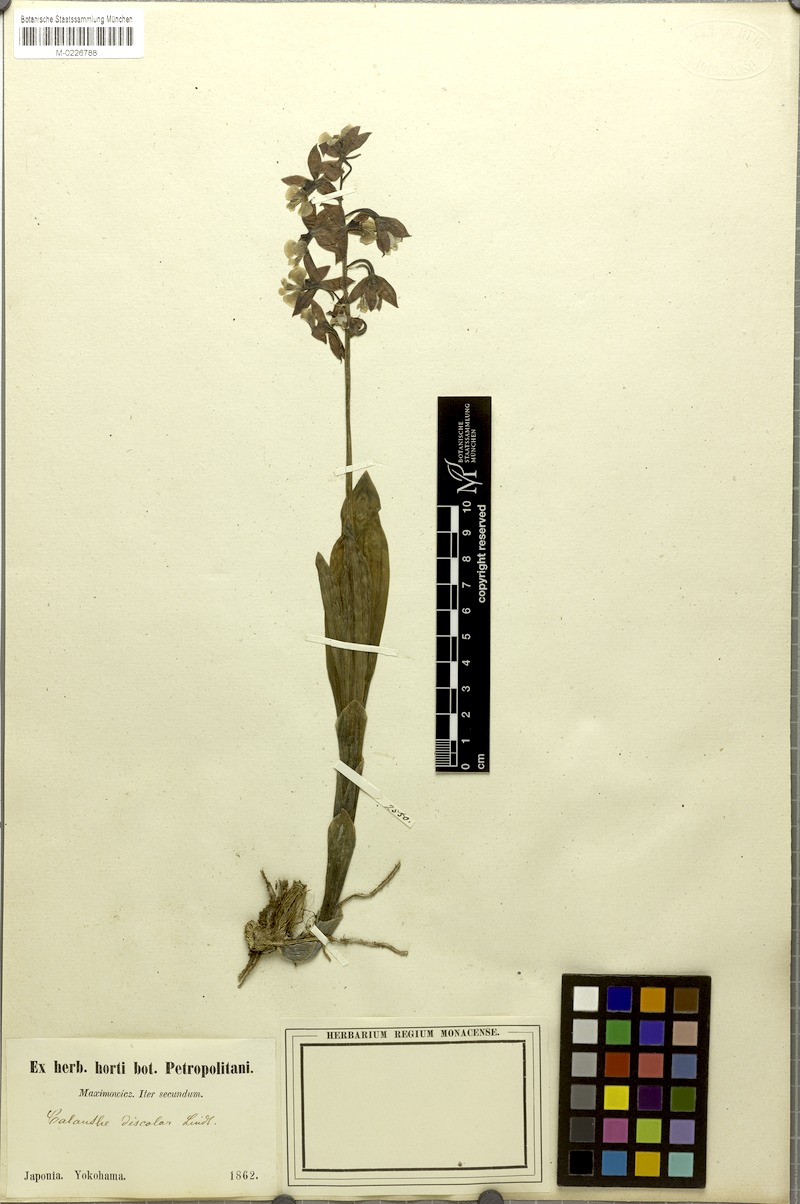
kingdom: Plantae
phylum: Tracheophyta
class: Liliopsida
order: Asparagales
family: Orchidaceae
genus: Calanthe
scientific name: Calanthe discolor
